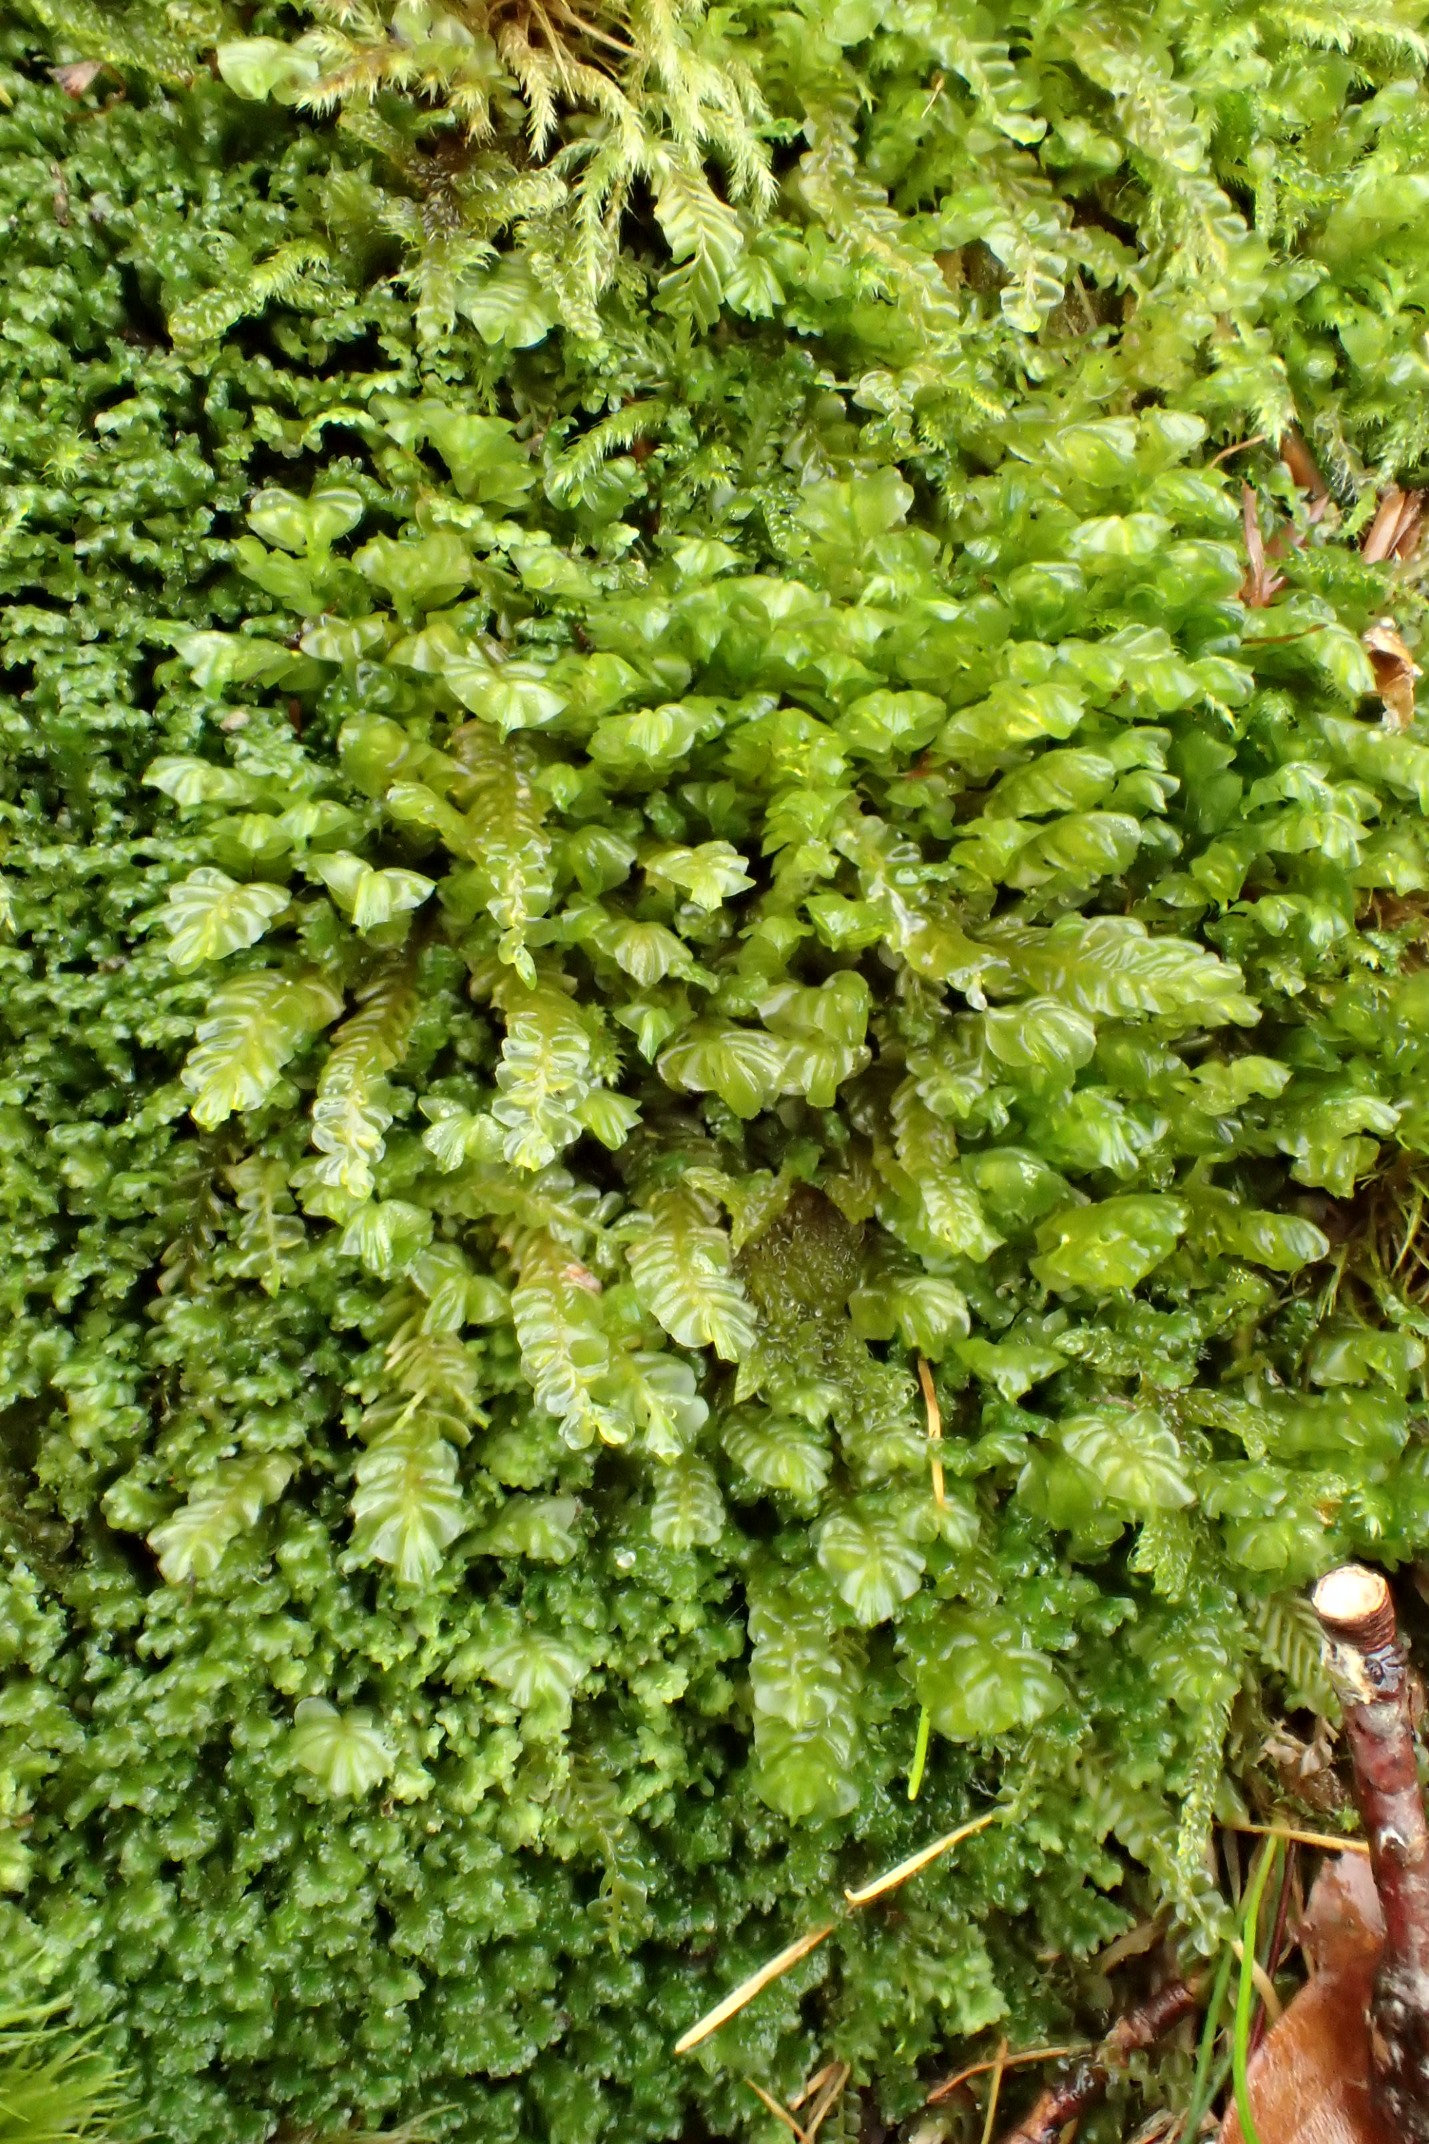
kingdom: Plantae
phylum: Marchantiophyta
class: Jungermanniopsida
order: Jungermanniales
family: Plagiochilaceae
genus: Plagiochila
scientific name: Plagiochila asplenioides
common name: Radeløv-hindeblad
